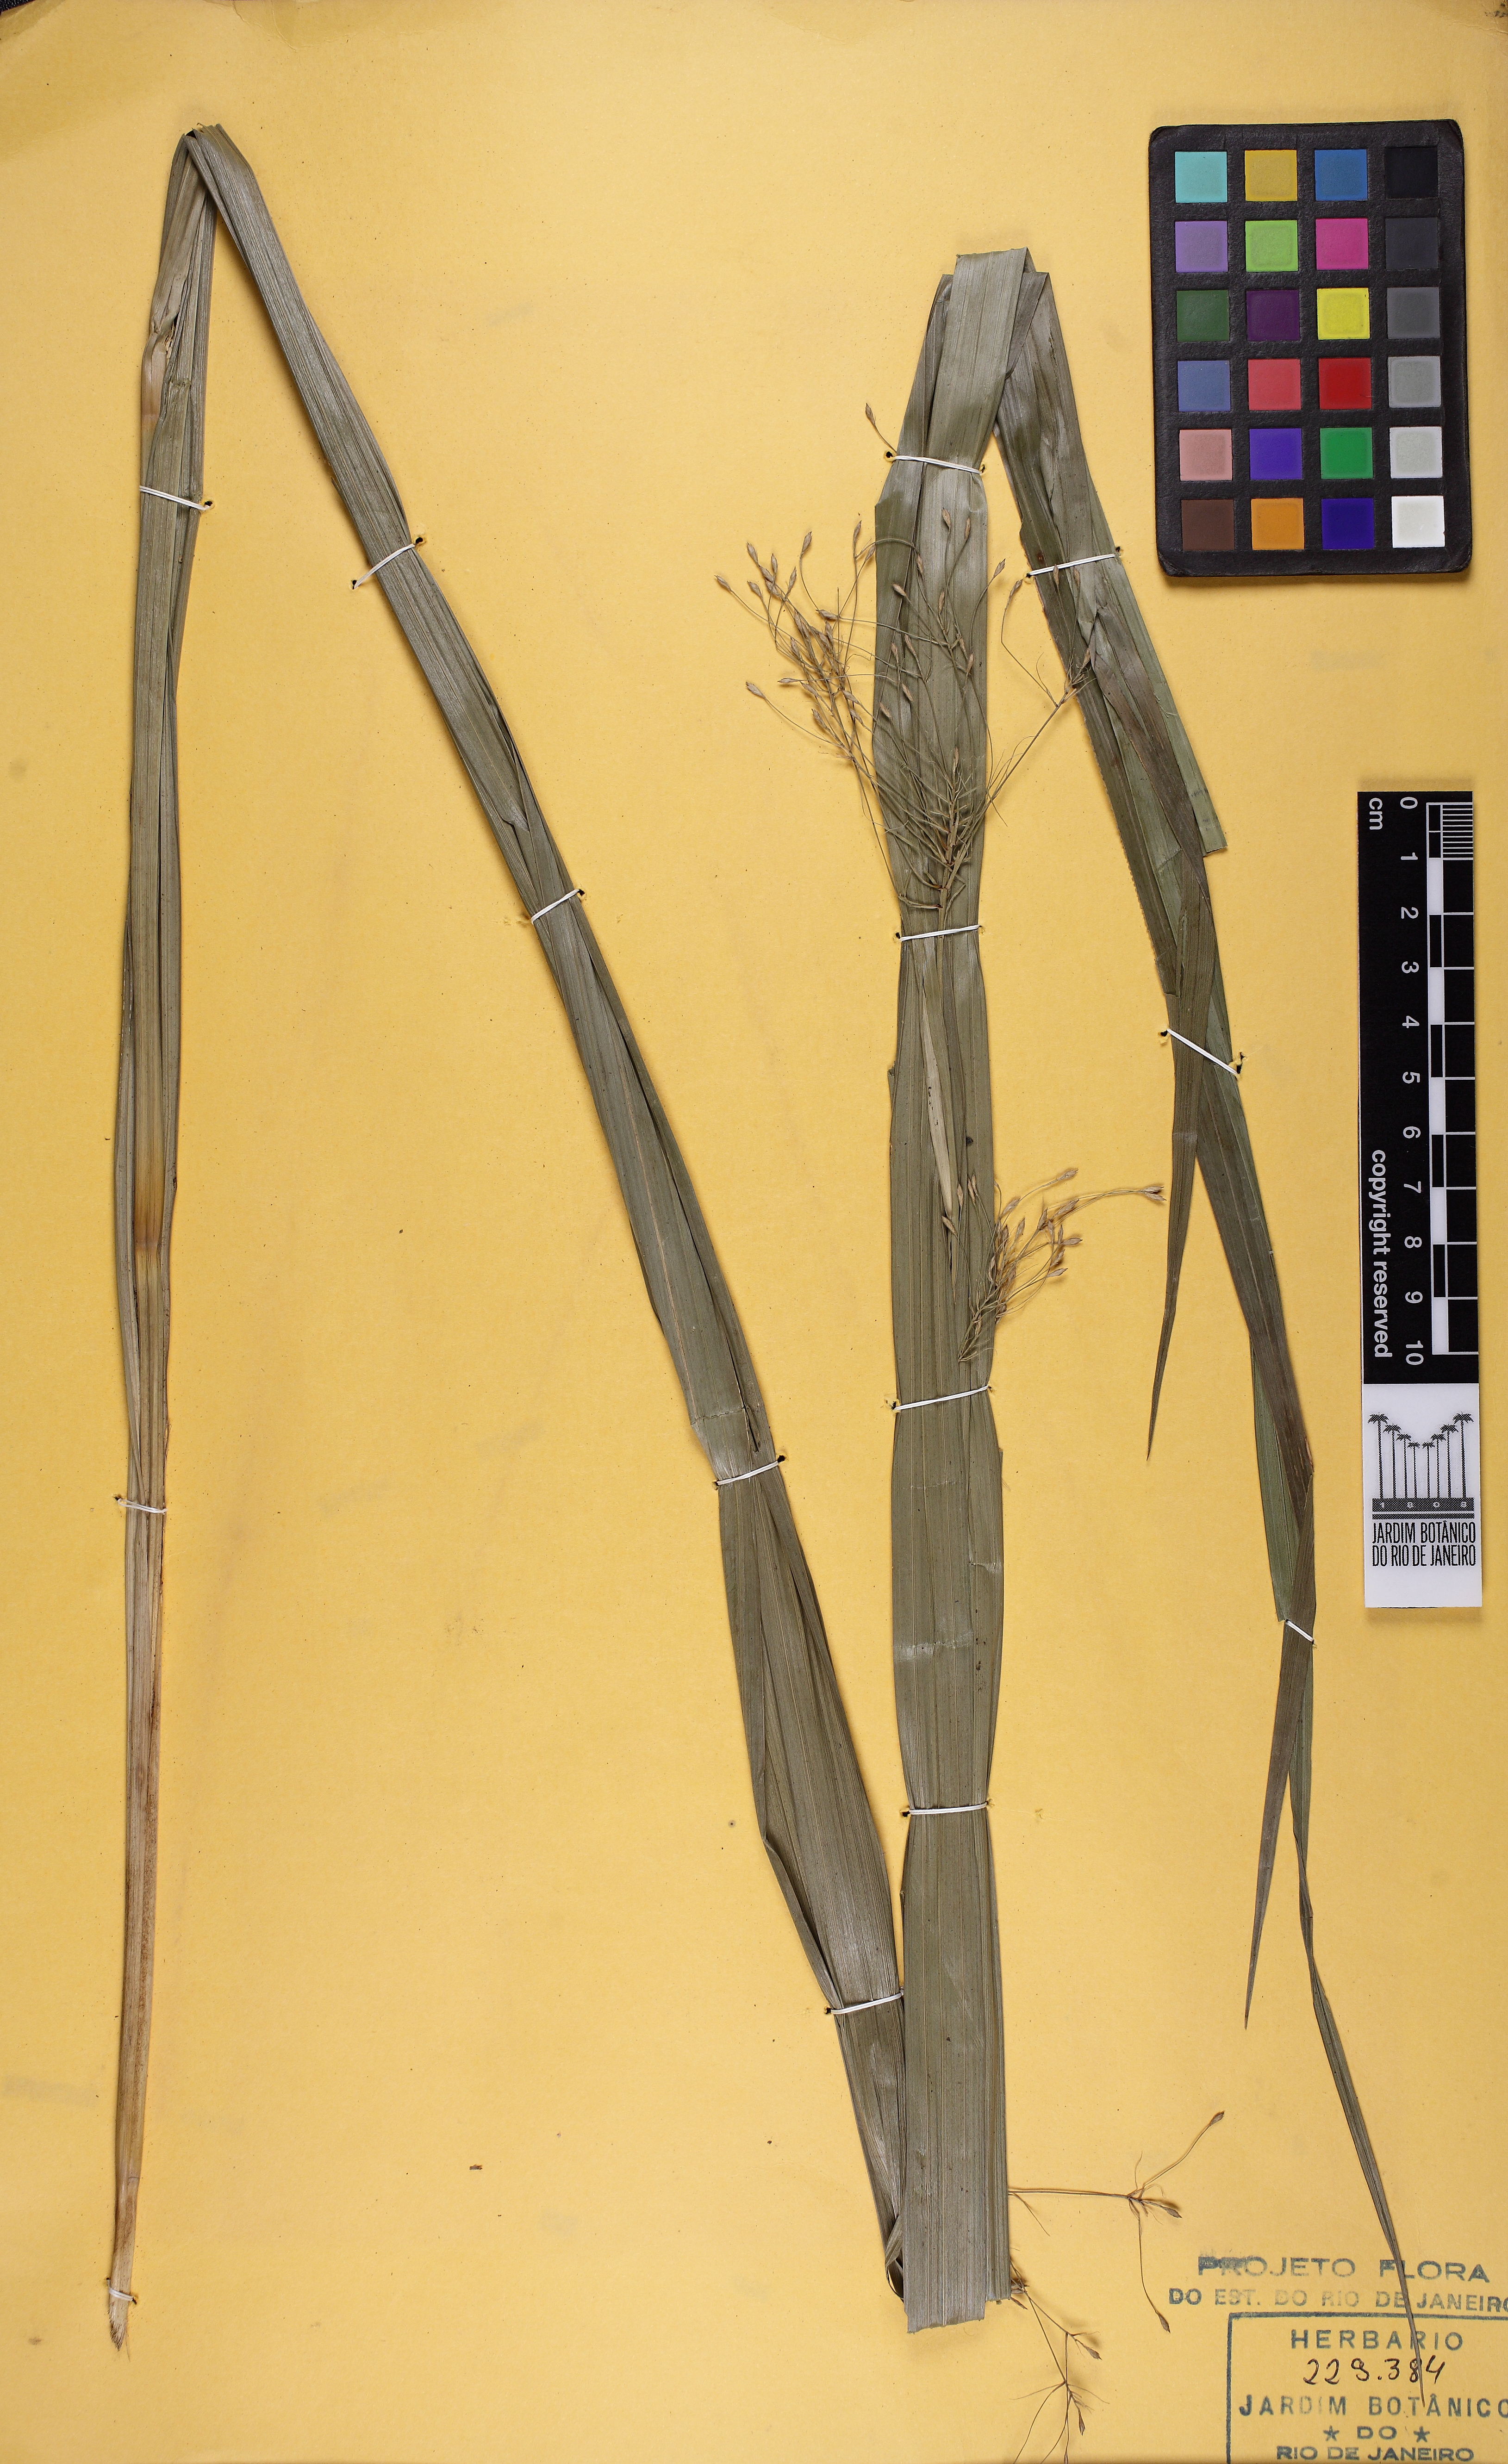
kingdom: Plantae
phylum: Tracheophyta
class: Liliopsida
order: Poales
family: Cyperaceae
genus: Rhynchospora
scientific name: Rhynchospora macrantha
